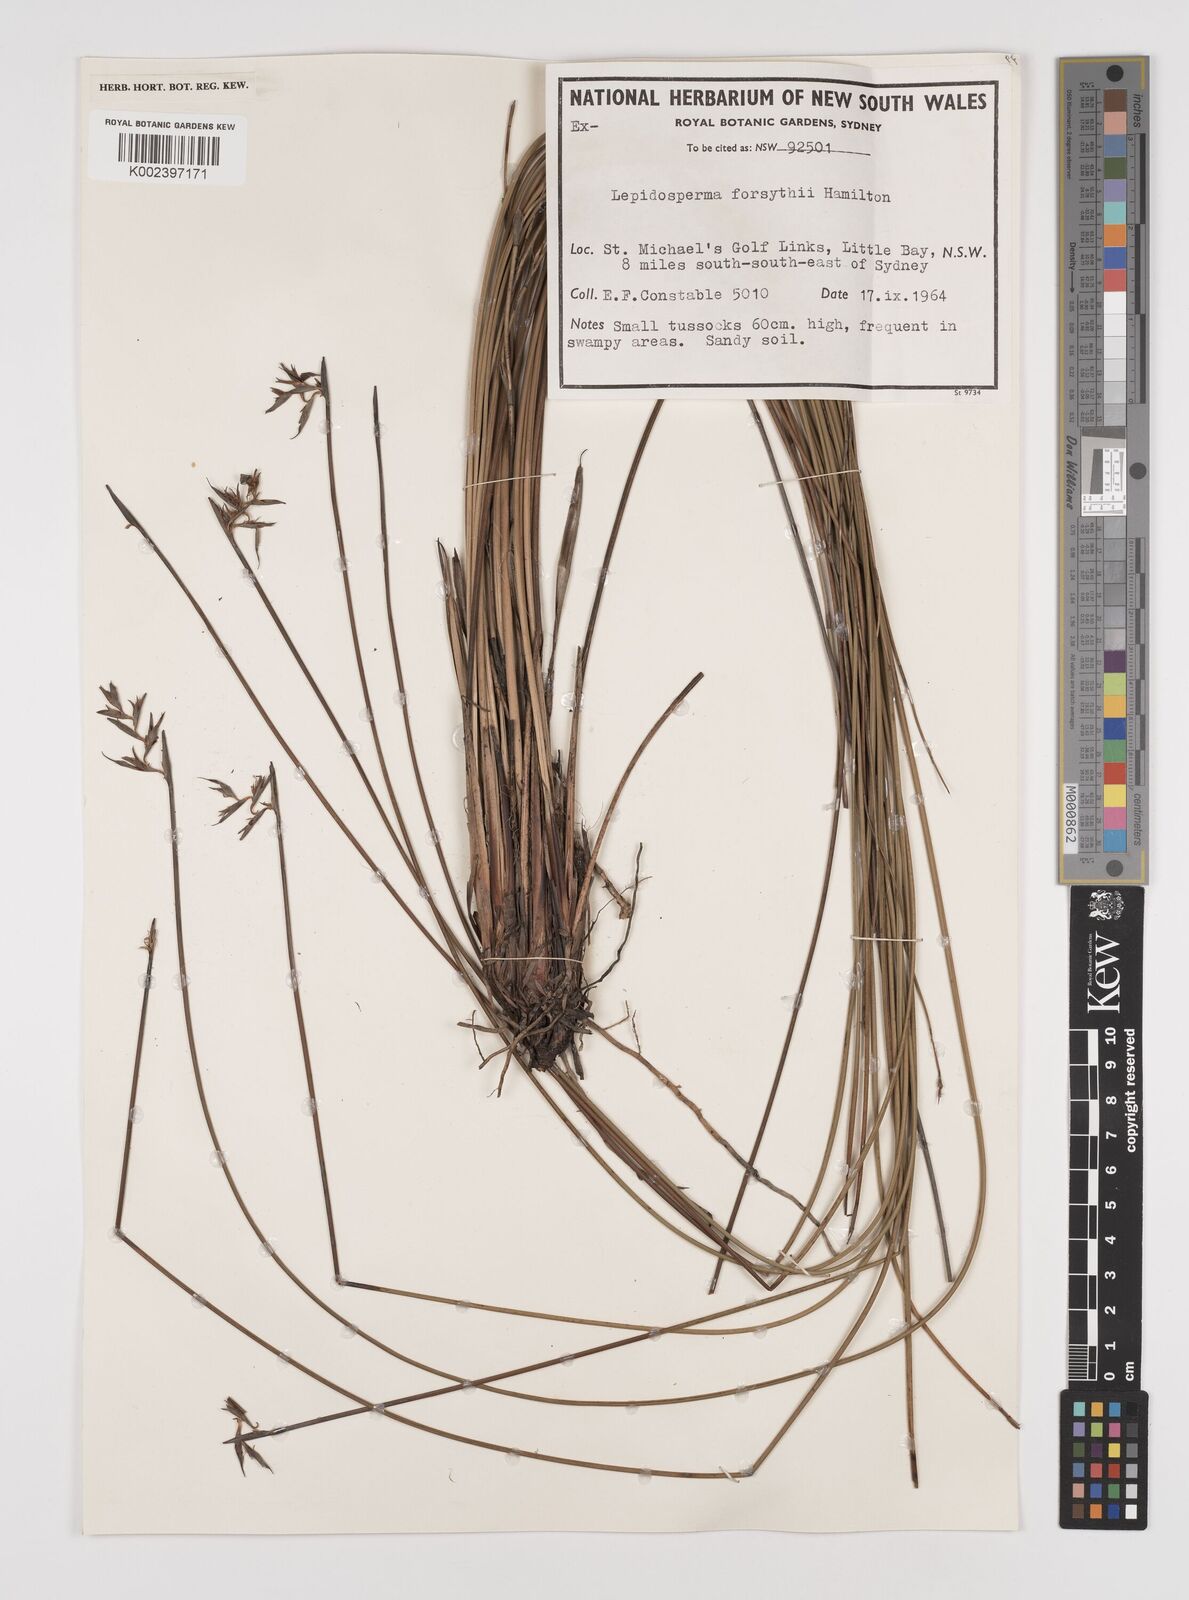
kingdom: Plantae
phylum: Tracheophyta
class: Liliopsida
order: Poales
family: Cyperaceae
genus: Lepidosperma
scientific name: Lepidosperma forsythii
